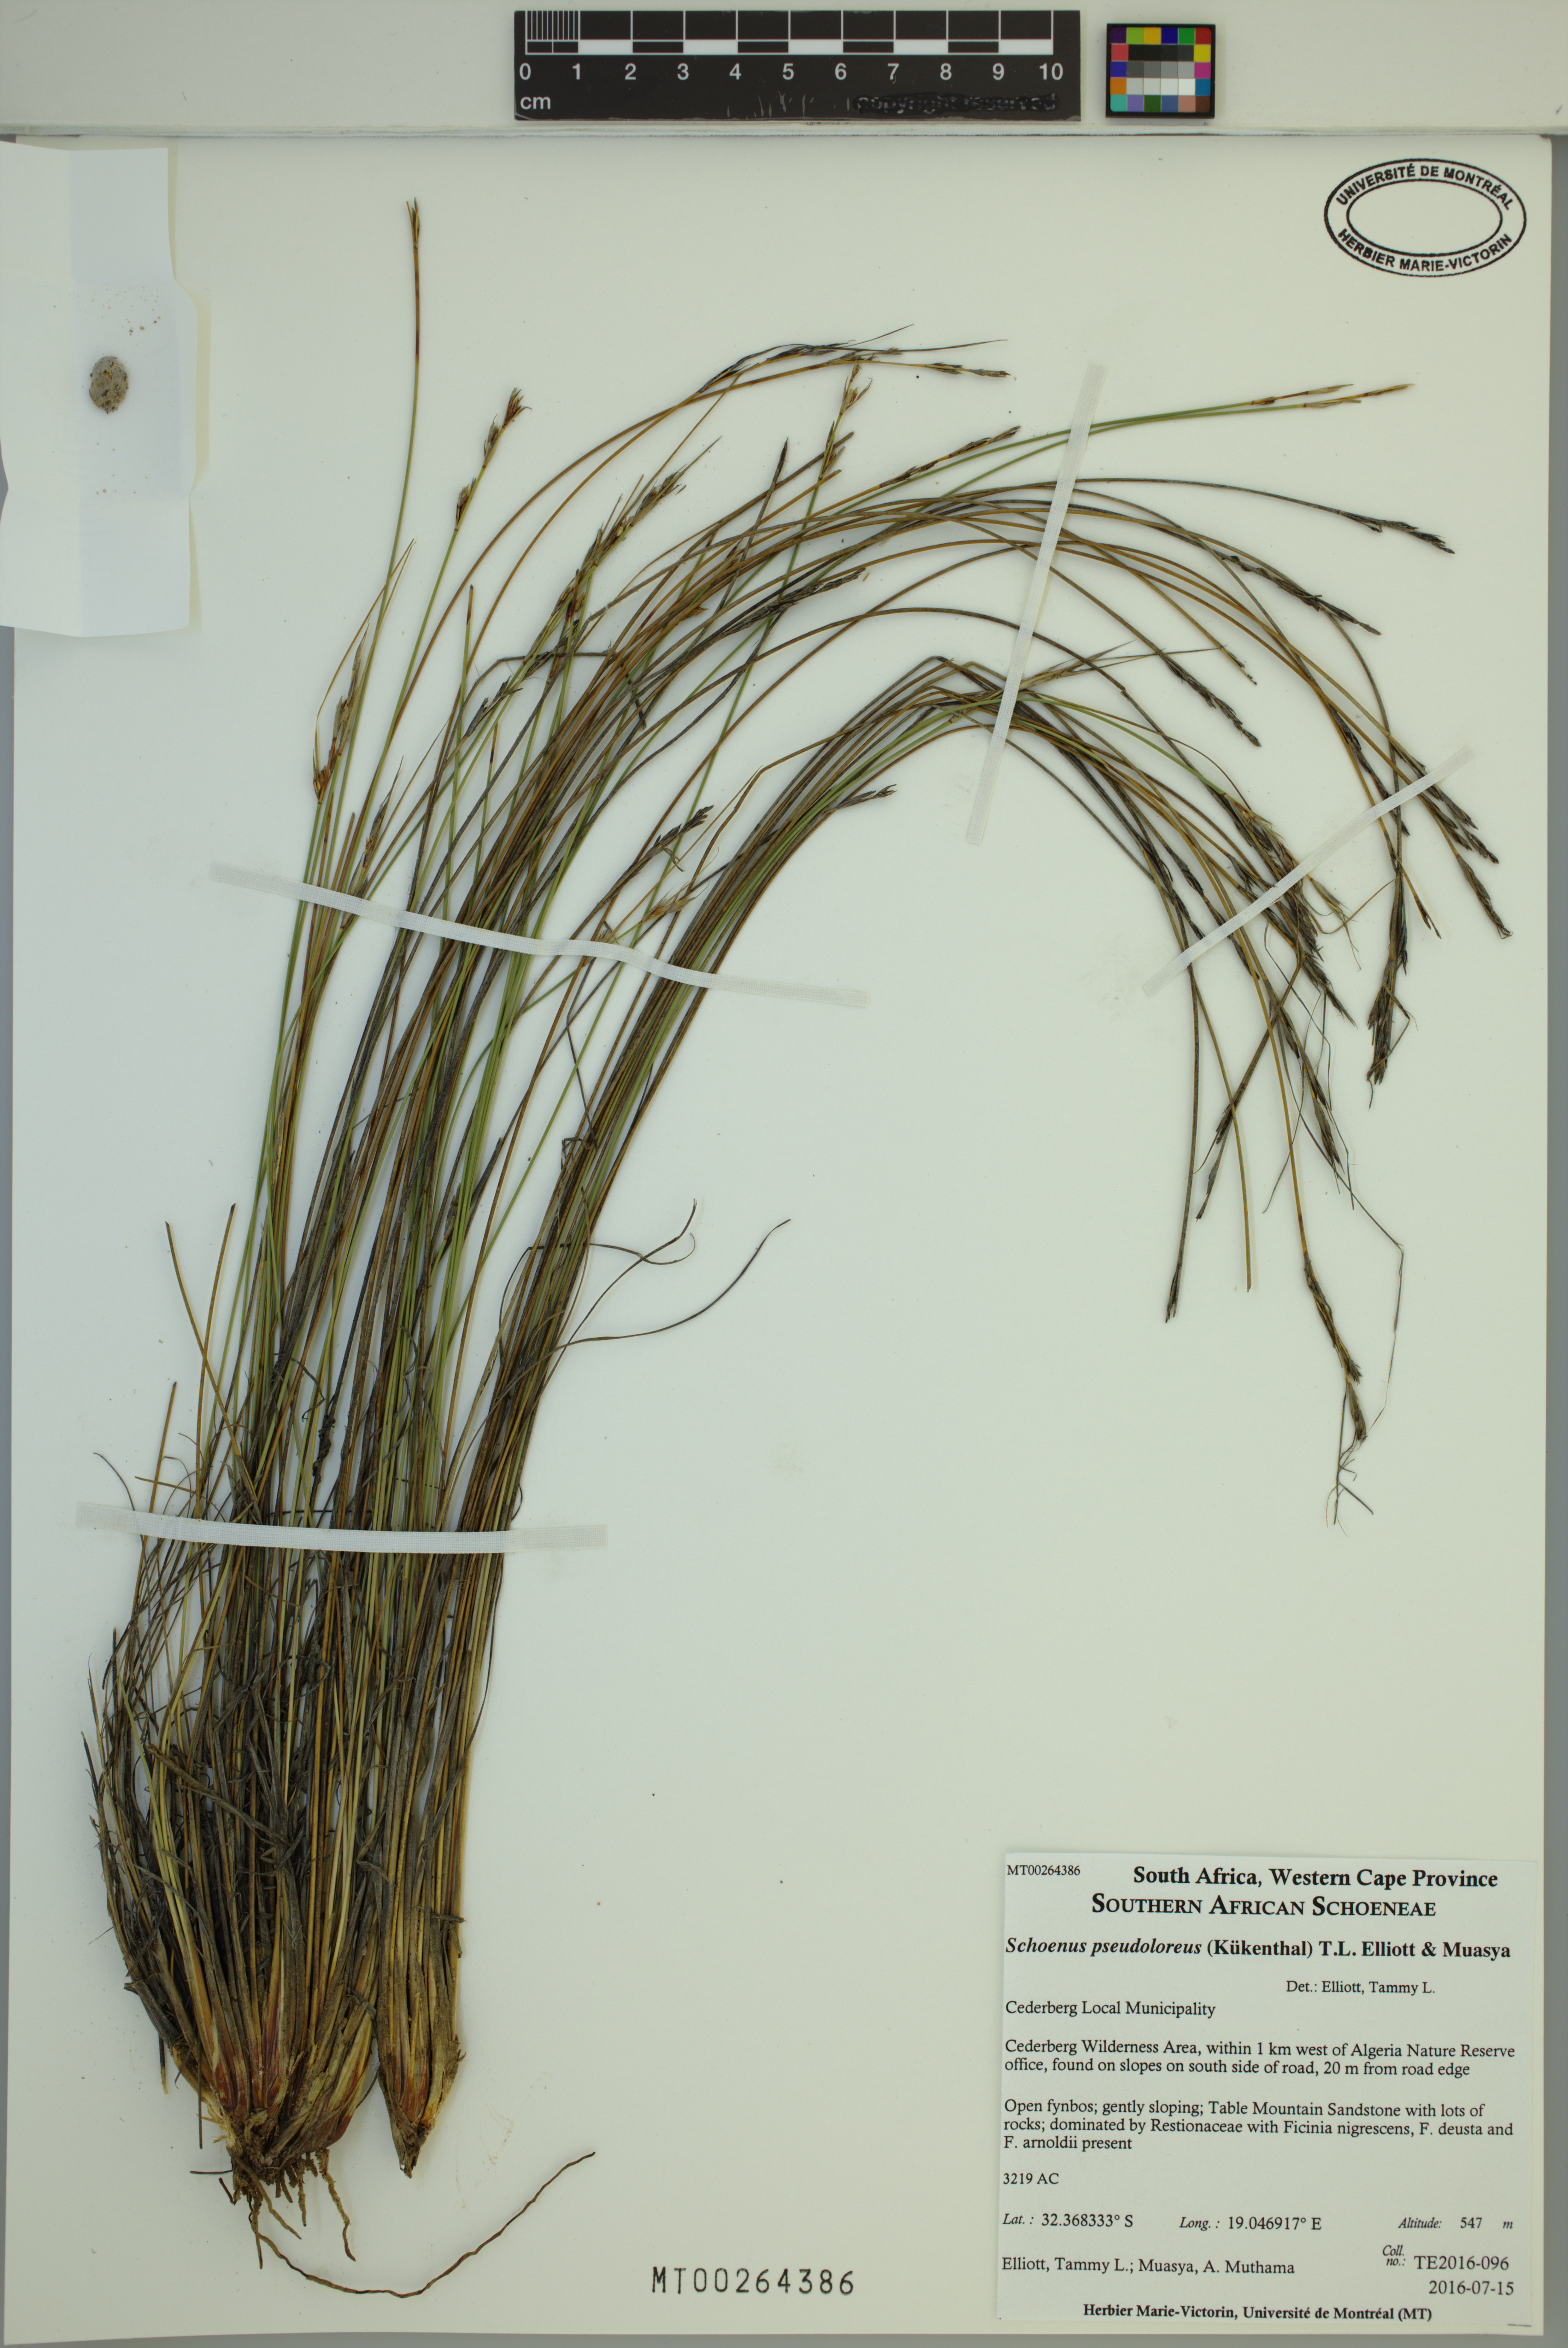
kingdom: Plantae
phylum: Tracheophyta
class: Liliopsida
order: Poales
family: Cyperaceae
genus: Schoenus
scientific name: Schoenus pseudoloreus
